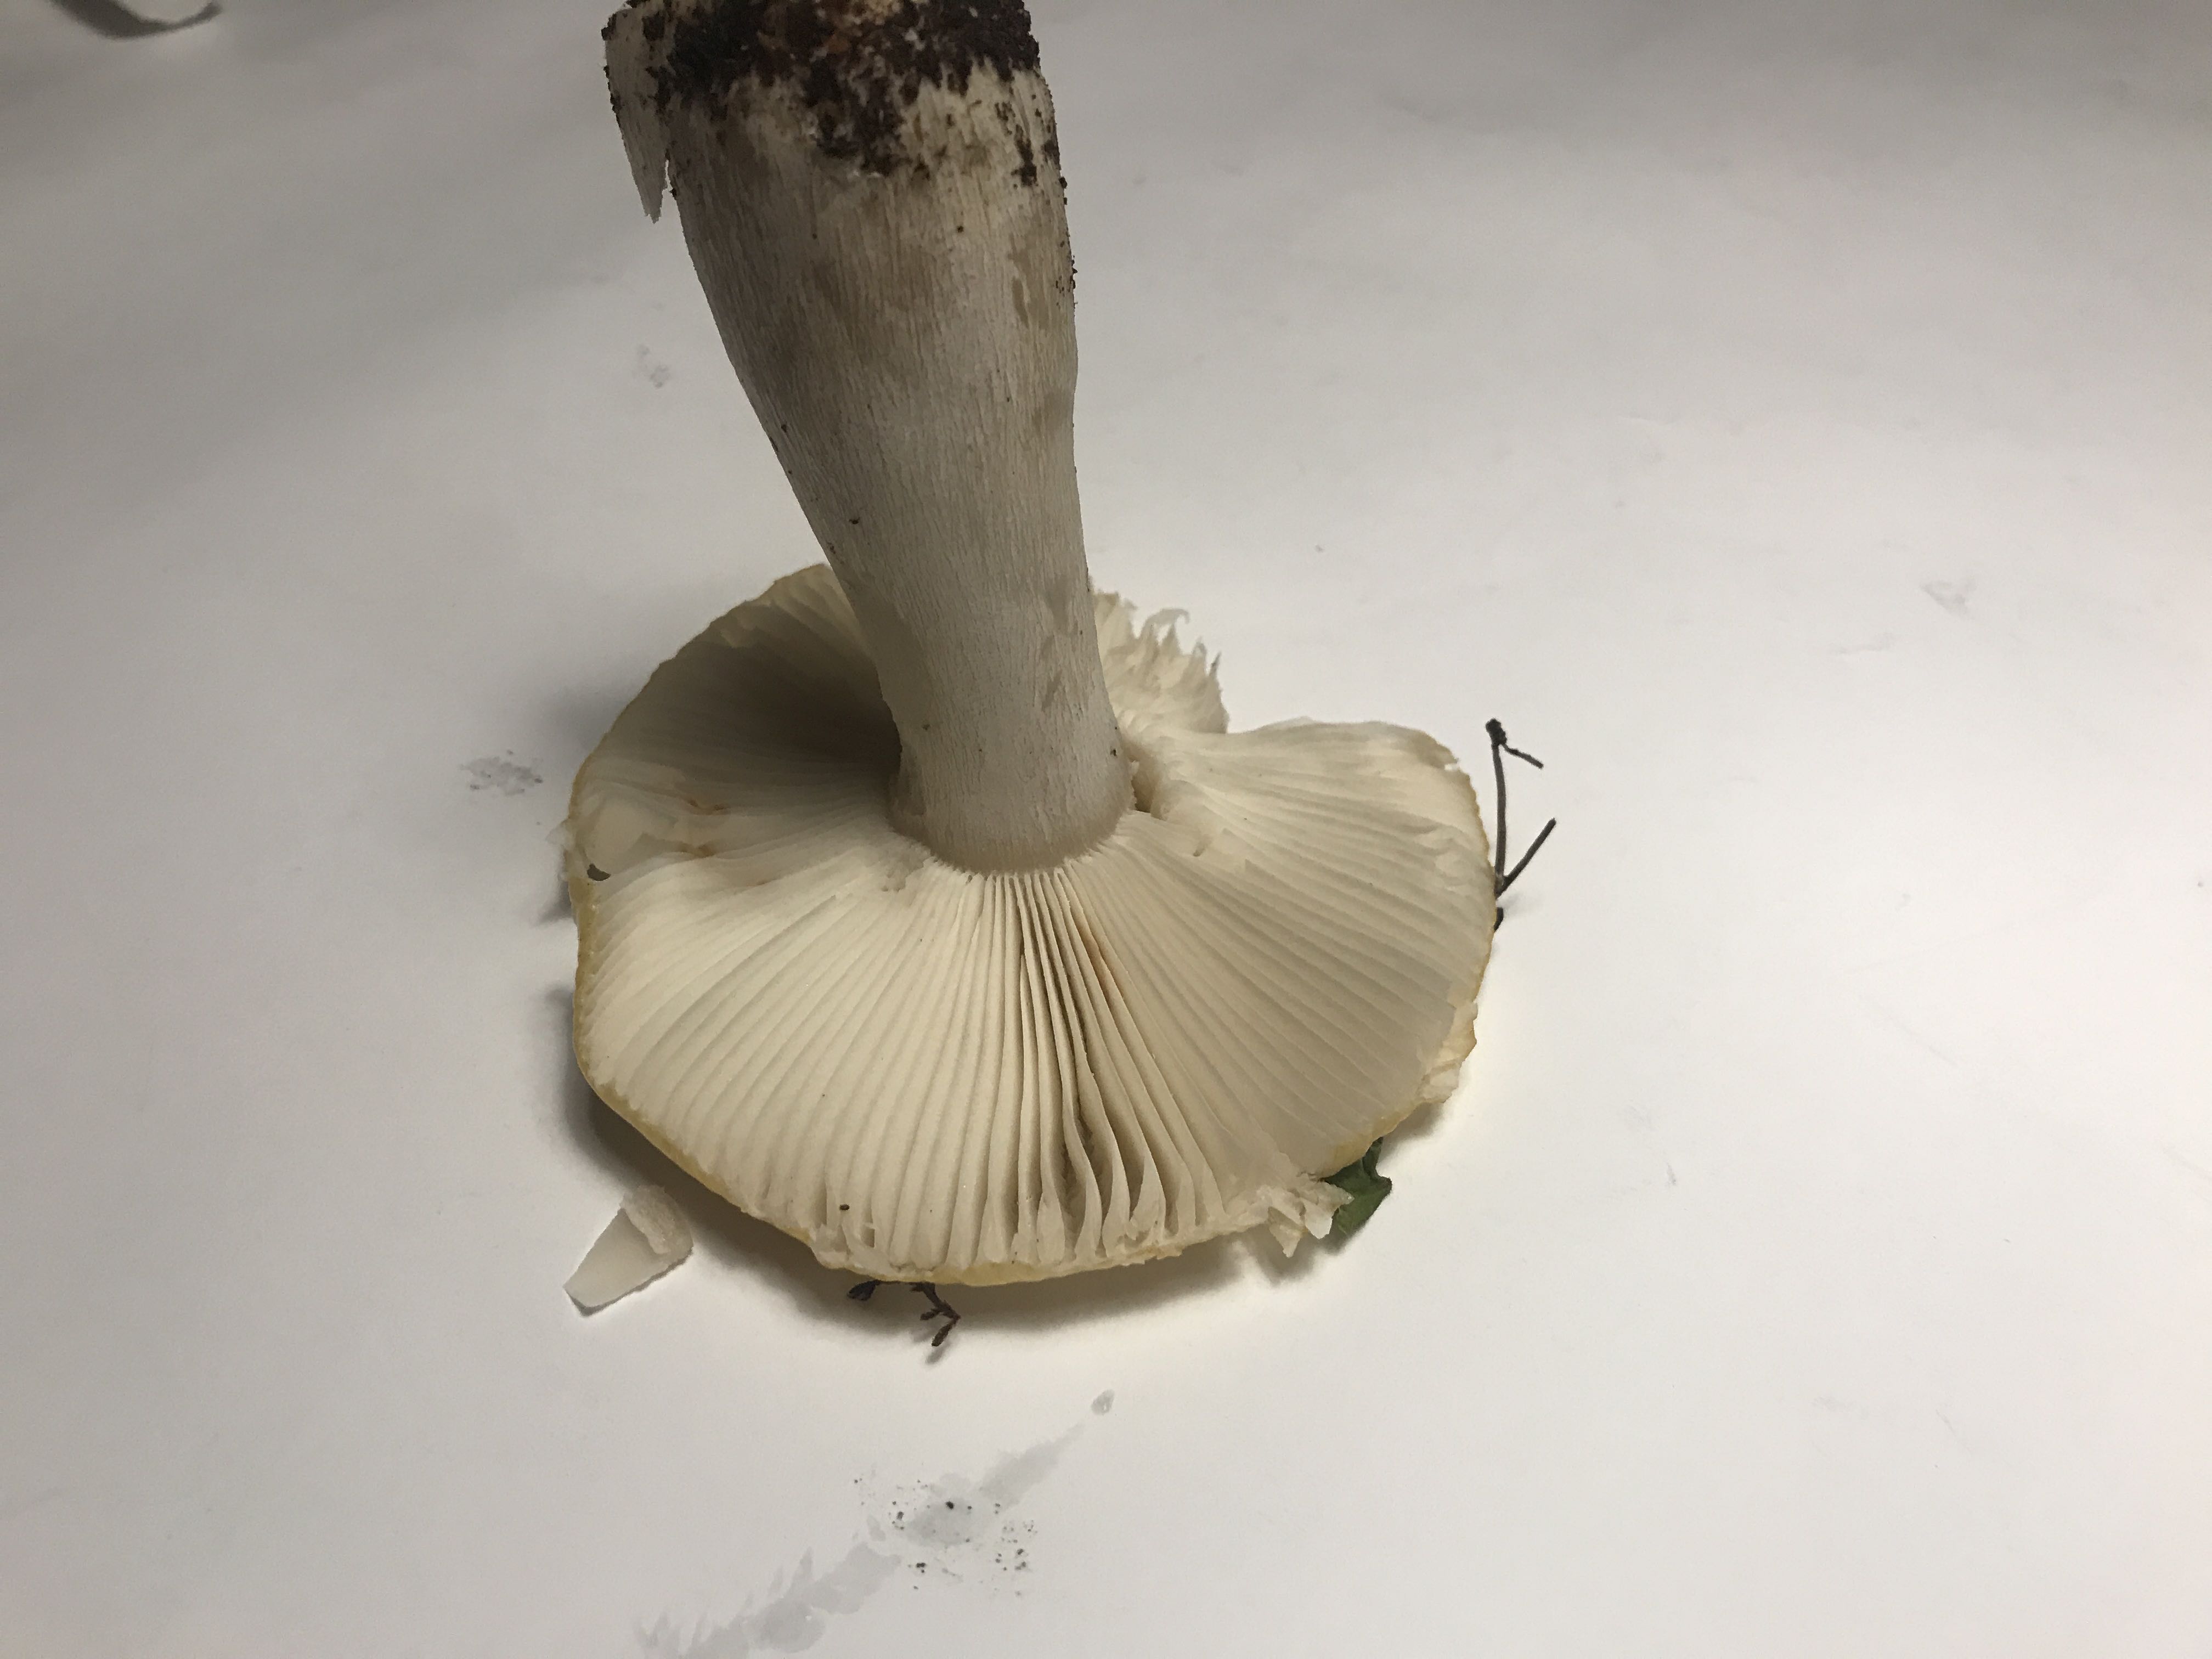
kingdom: Fungi
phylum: Basidiomycota
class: Agaricomycetes
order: Russulales
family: Russulaceae
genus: Russula
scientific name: Russula ochroleuca
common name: okkergul skørhat
